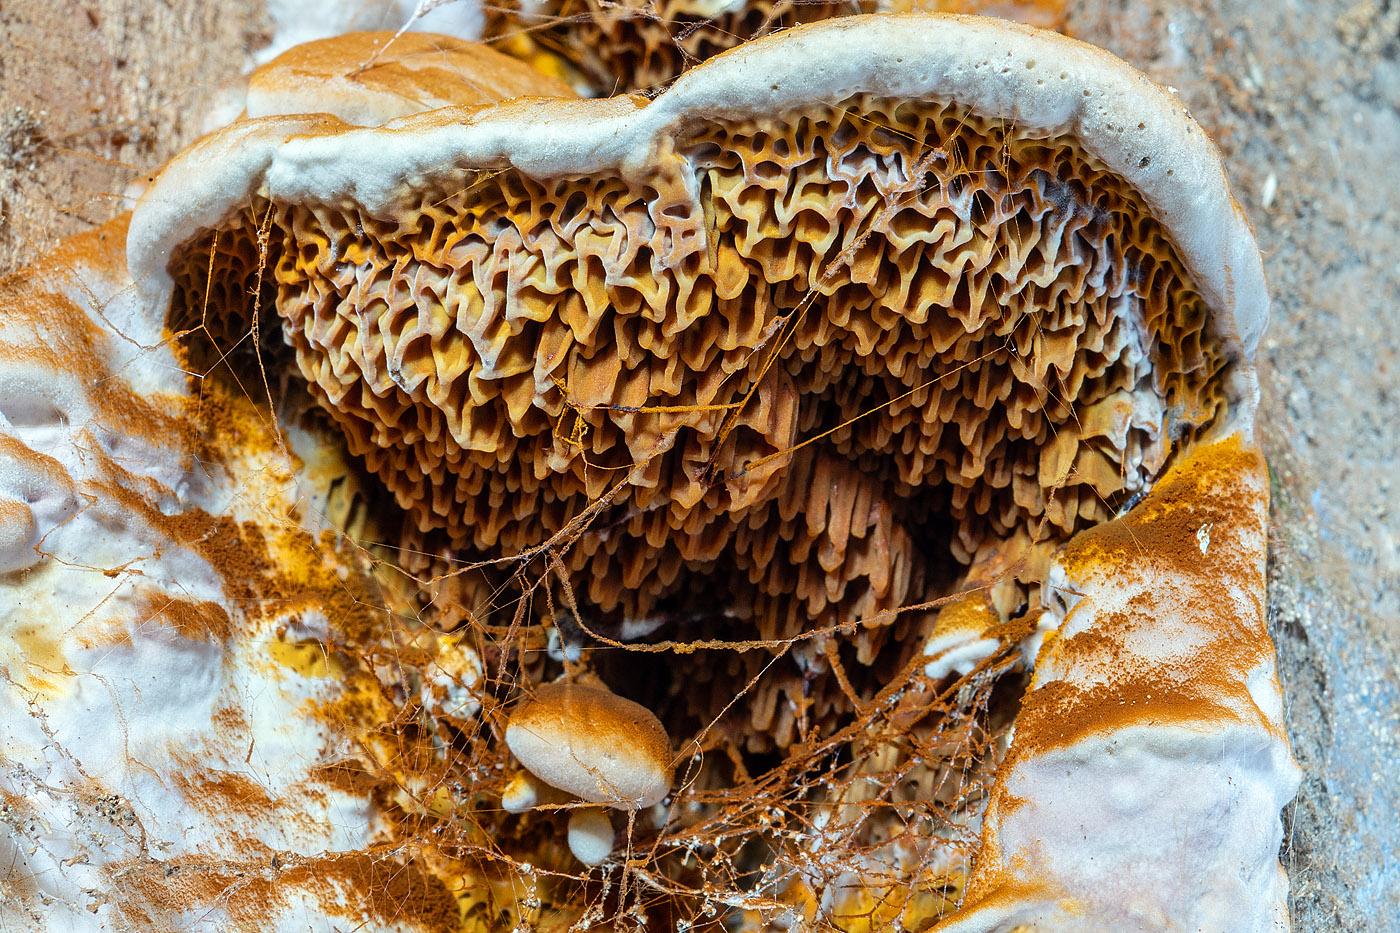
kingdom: Fungi
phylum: Basidiomycota
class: Agaricomycetes
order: Boletales
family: Serpulaceae
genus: Serpula
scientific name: Serpula lacrymans
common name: ægte hussvamp
